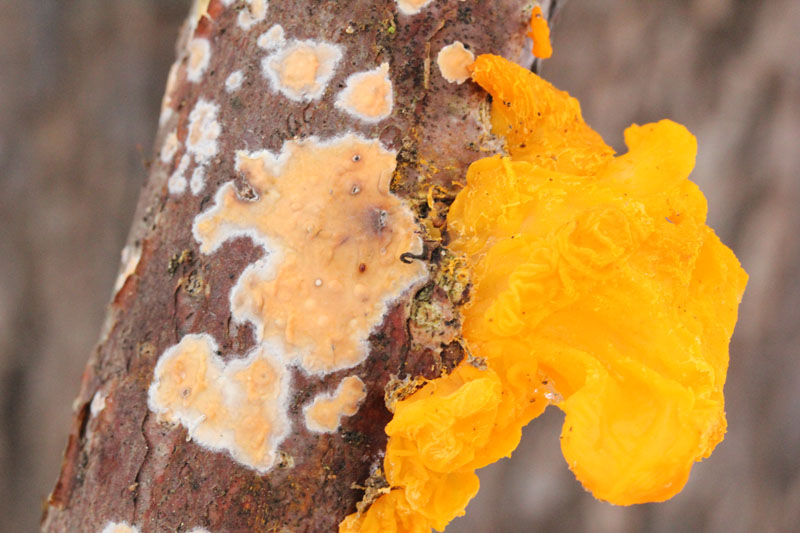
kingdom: Fungi
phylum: Basidiomycota
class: Tremellomycetes
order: Tremellales
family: Tremellaceae
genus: Tremella
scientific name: Tremella mesenterica
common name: gul bævresvamp
